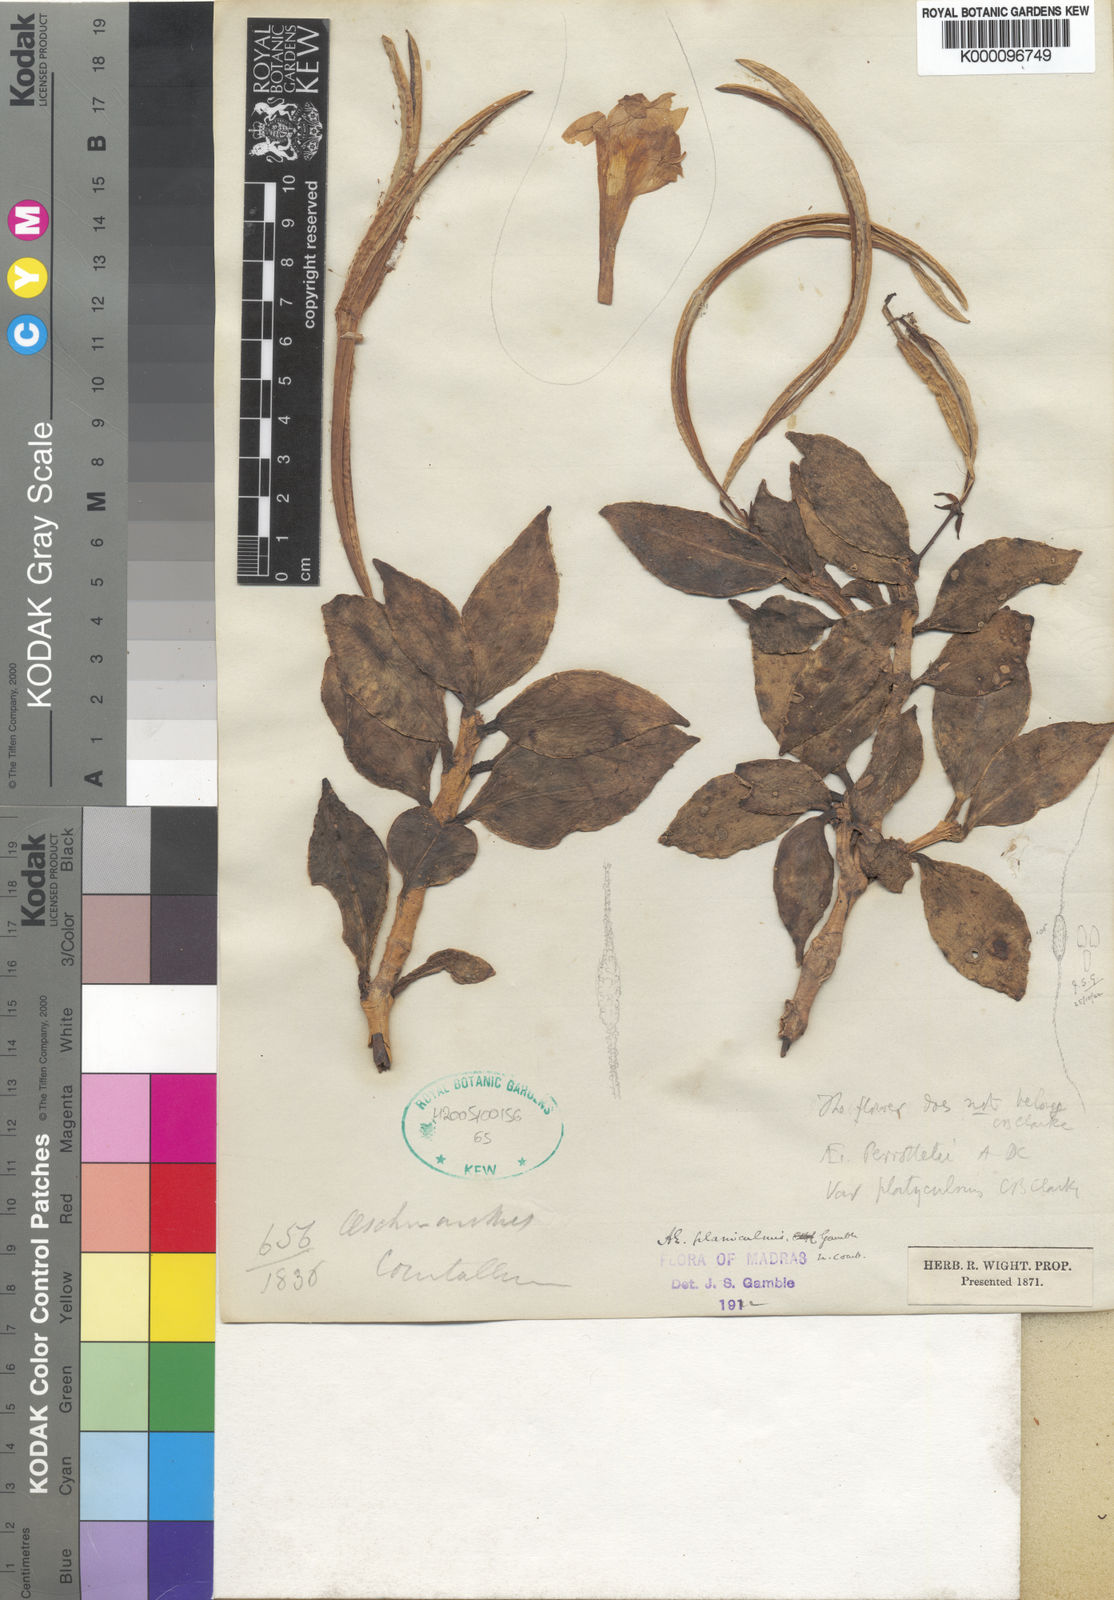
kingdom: Plantae
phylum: Tracheophyta
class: Magnoliopsida
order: Lamiales
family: Gesneriaceae
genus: Aeschynanthus
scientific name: Aeschynanthus
